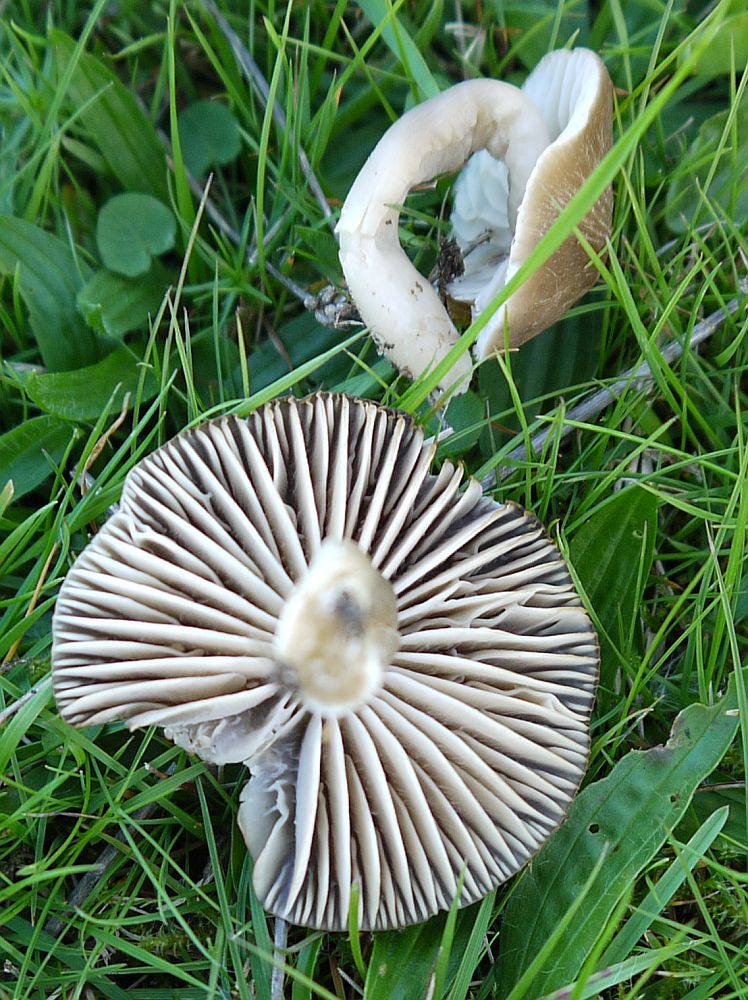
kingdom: Fungi
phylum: Basidiomycota
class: Agaricomycetes
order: Agaricales
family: Hygrophoraceae
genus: Neohygrocybe
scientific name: Neohygrocybe nitrata
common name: stinkende vokshat
